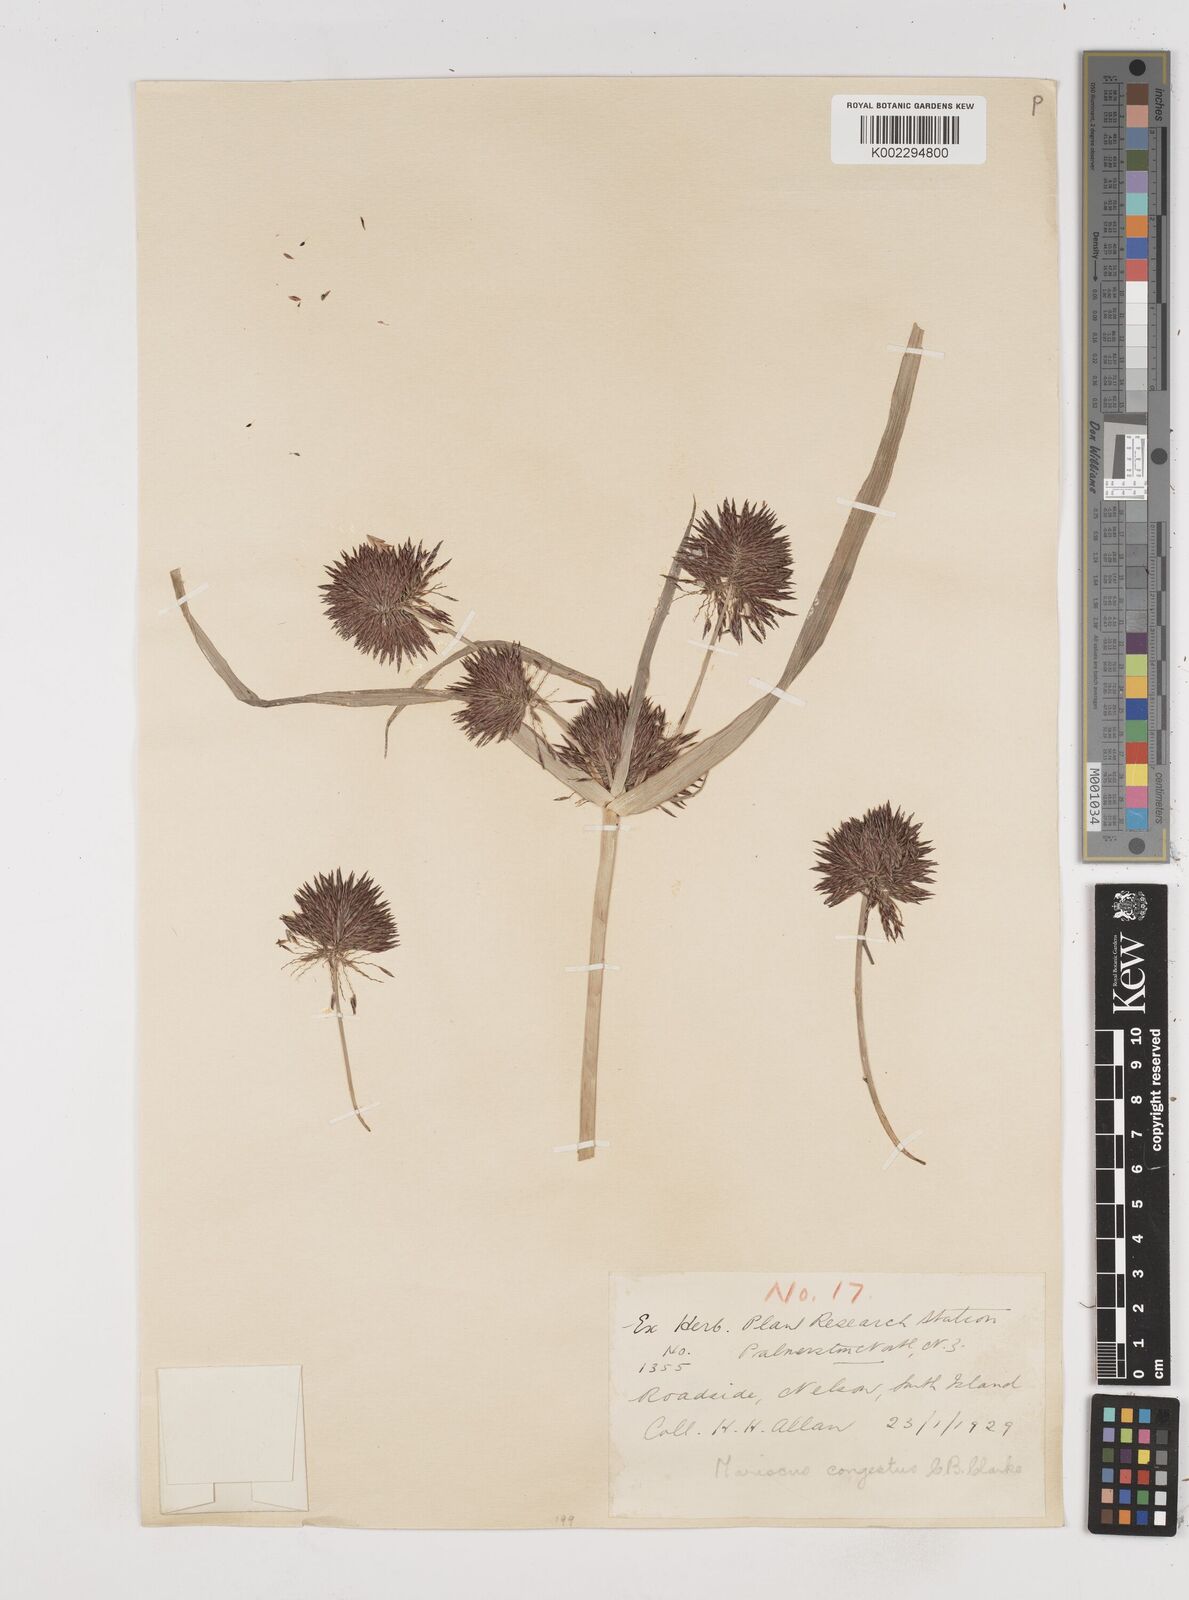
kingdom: Plantae
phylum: Tracheophyta
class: Liliopsida
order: Poales
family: Cyperaceae
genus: Cyperus
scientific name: Cyperus congestus
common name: Dense flat sedge
